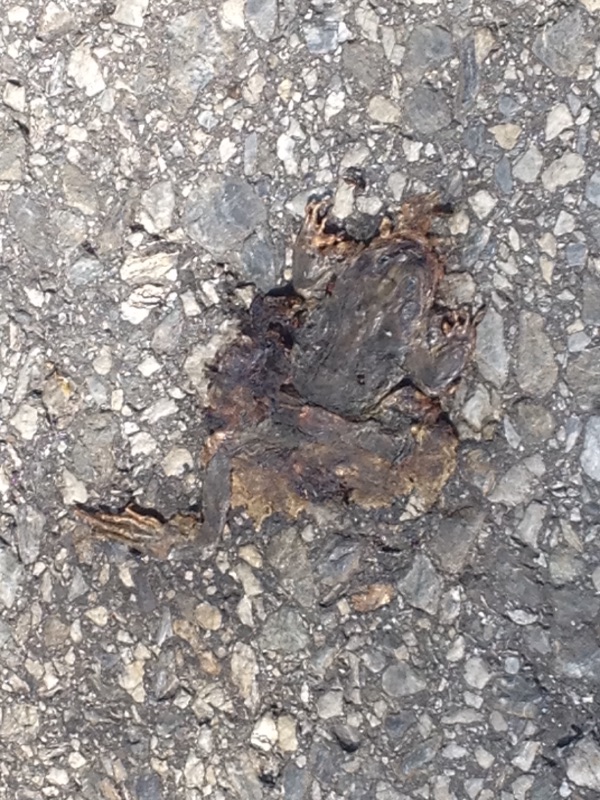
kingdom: Animalia
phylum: Chordata
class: Amphibia
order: Anura
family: Ranidae
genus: Rana
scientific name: Rana temporaria
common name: Common frog
